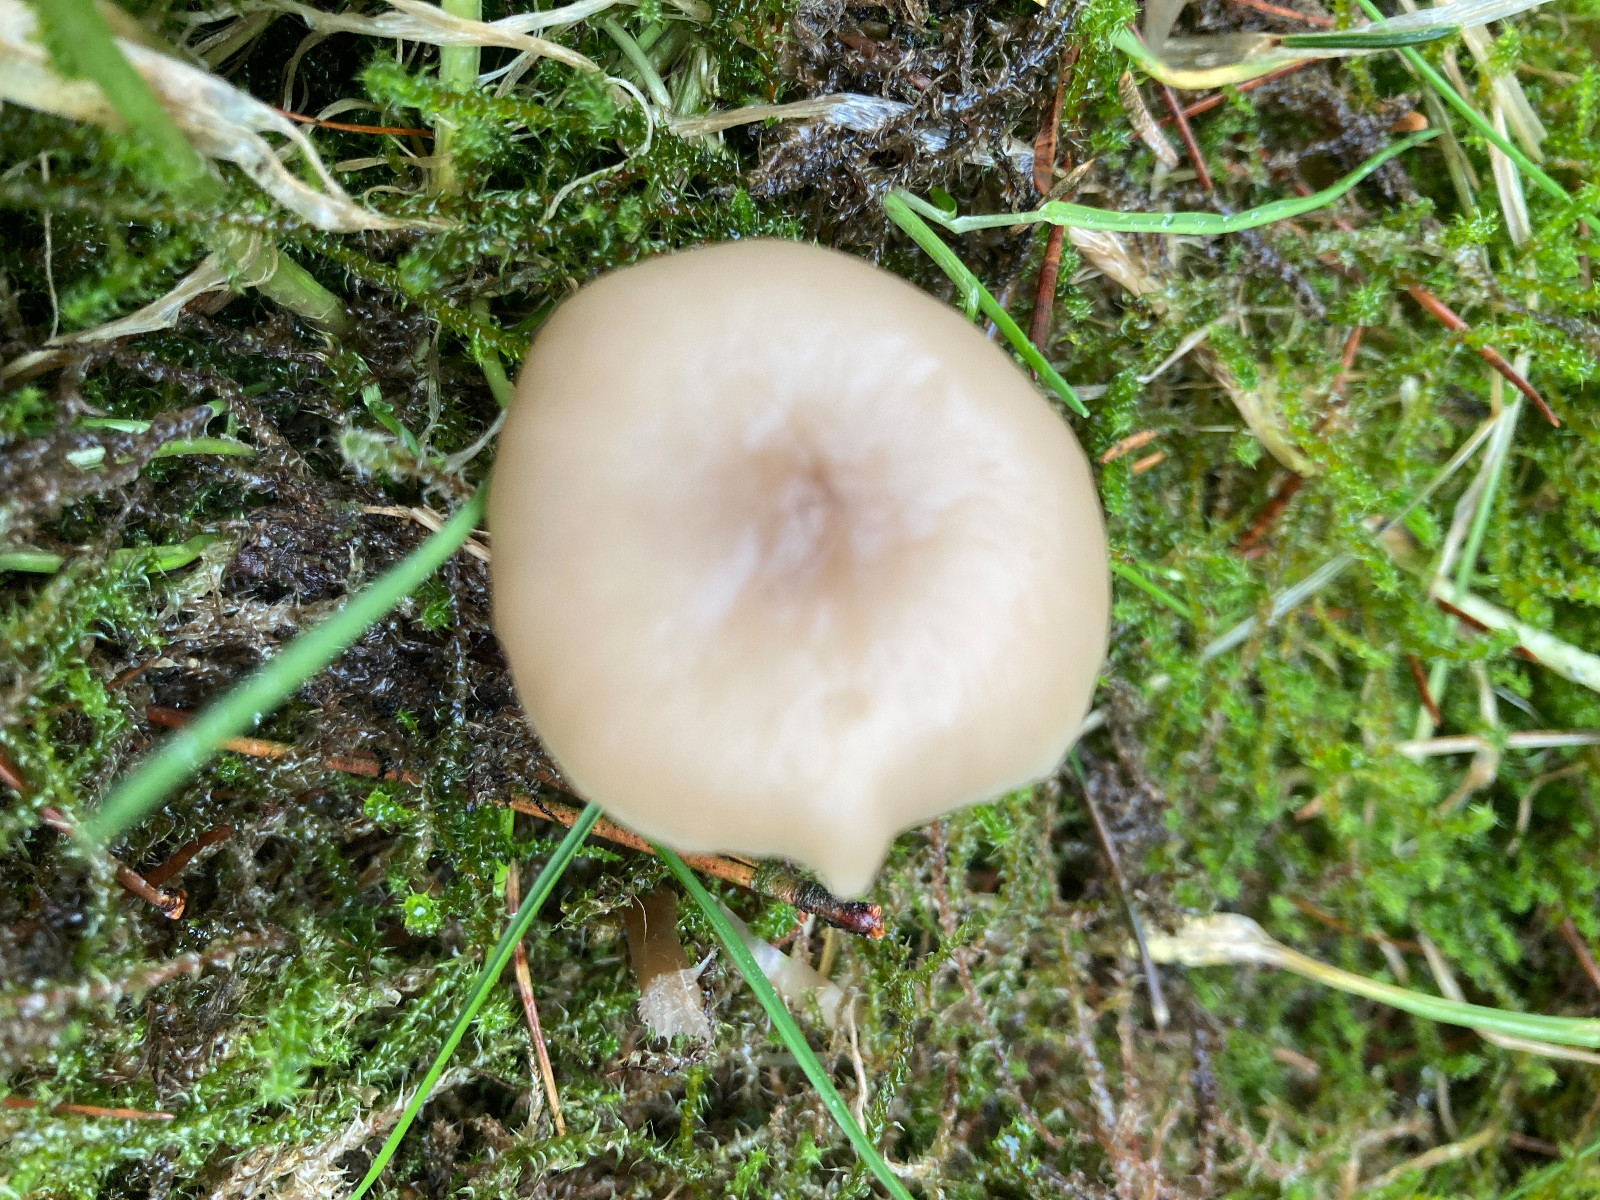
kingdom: Fungi
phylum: Basidiomycota
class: Agaricomycetes
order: Agaricales
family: Tricholomataceae
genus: Clitocybe
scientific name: Clitocybe fragrans
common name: vellugtende tragthat
